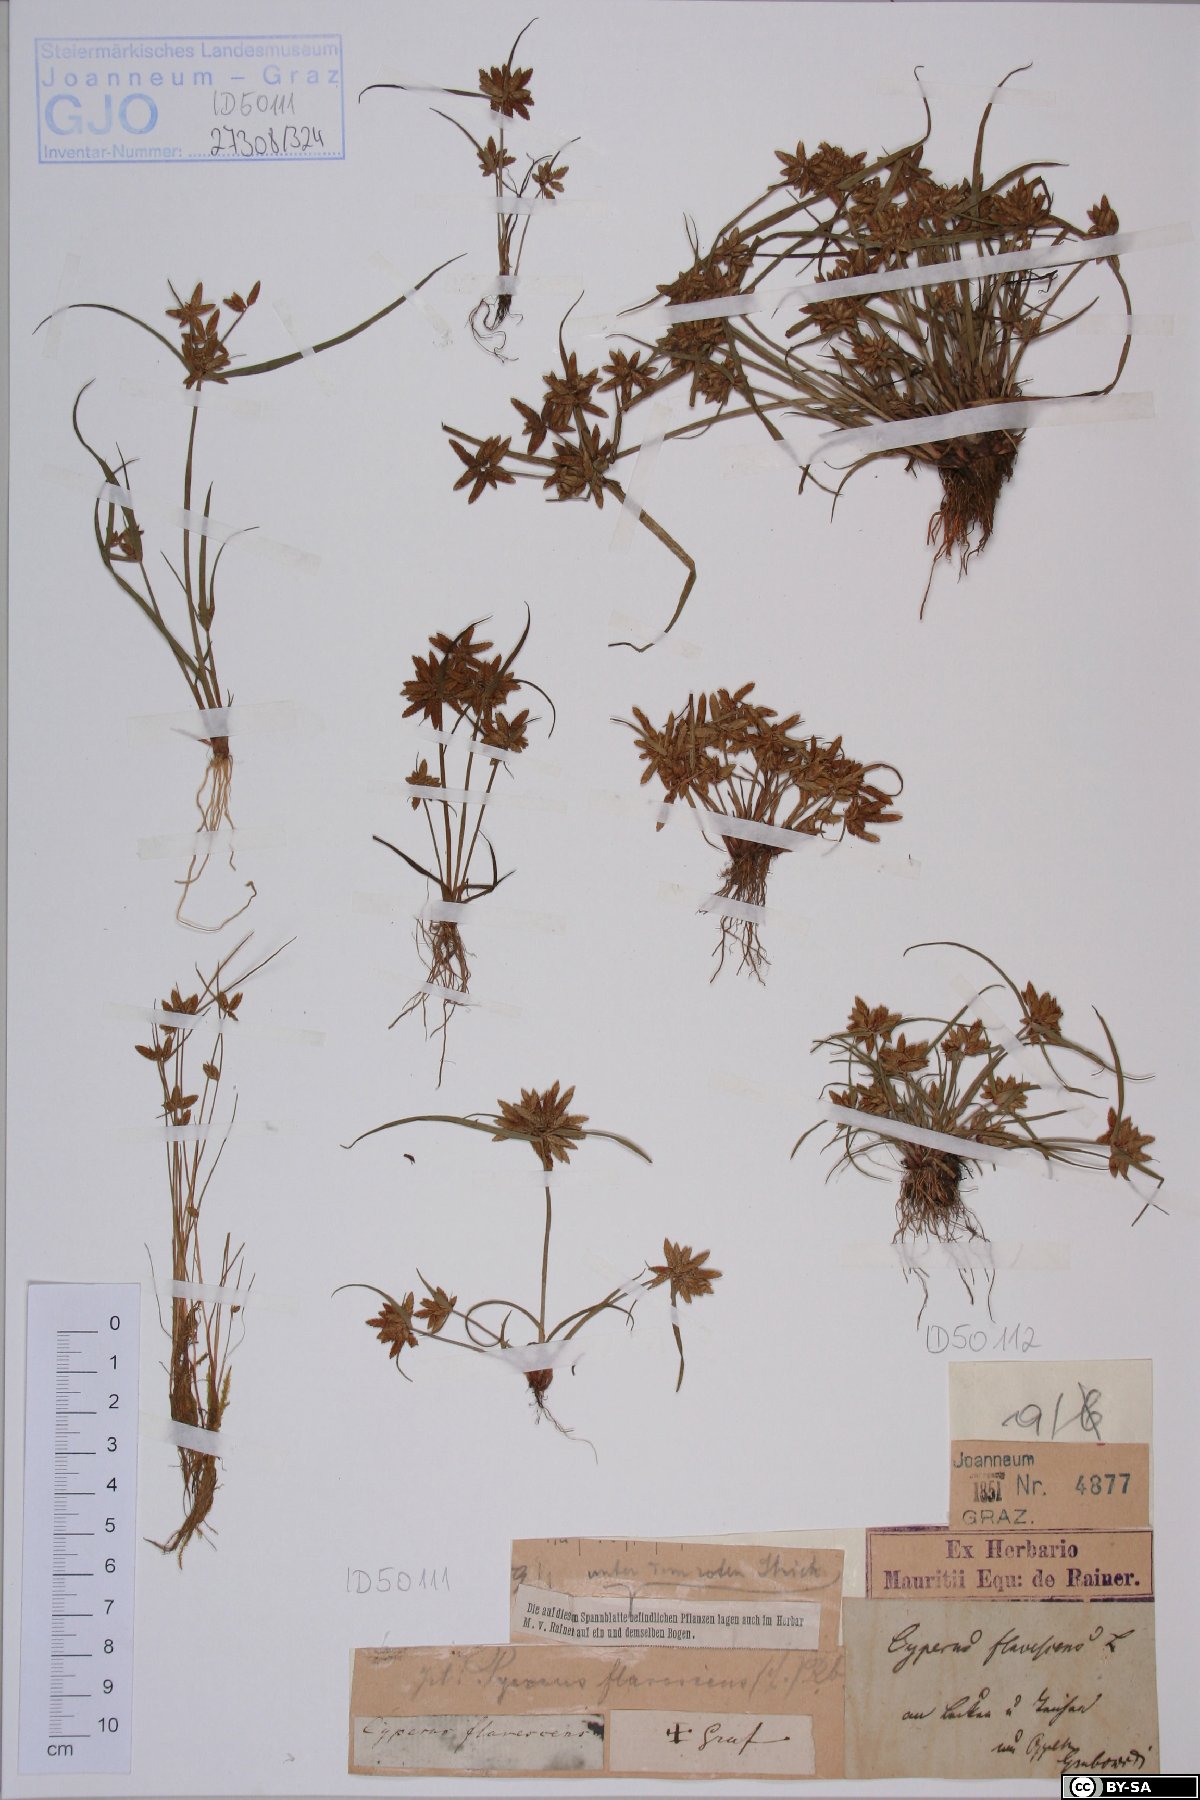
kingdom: Plantae
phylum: Tracheophyta
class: Liliopsida
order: Poales
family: Cyperaceae
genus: Cyperus
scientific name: Cyperus flavescens
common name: Yellow galingale
